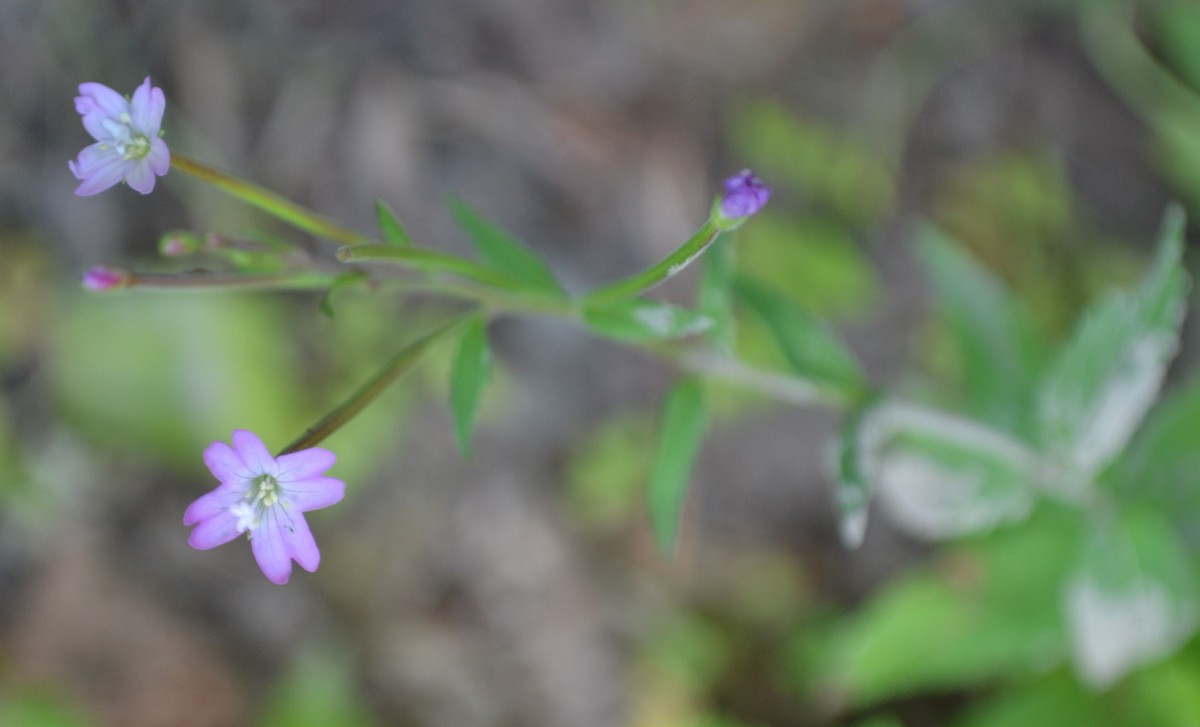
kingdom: Plantae
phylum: Tracheophyta
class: Magnoliopsida
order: Myrtales
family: Onagraceae
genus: Epilobium
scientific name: Epilobium roseum
